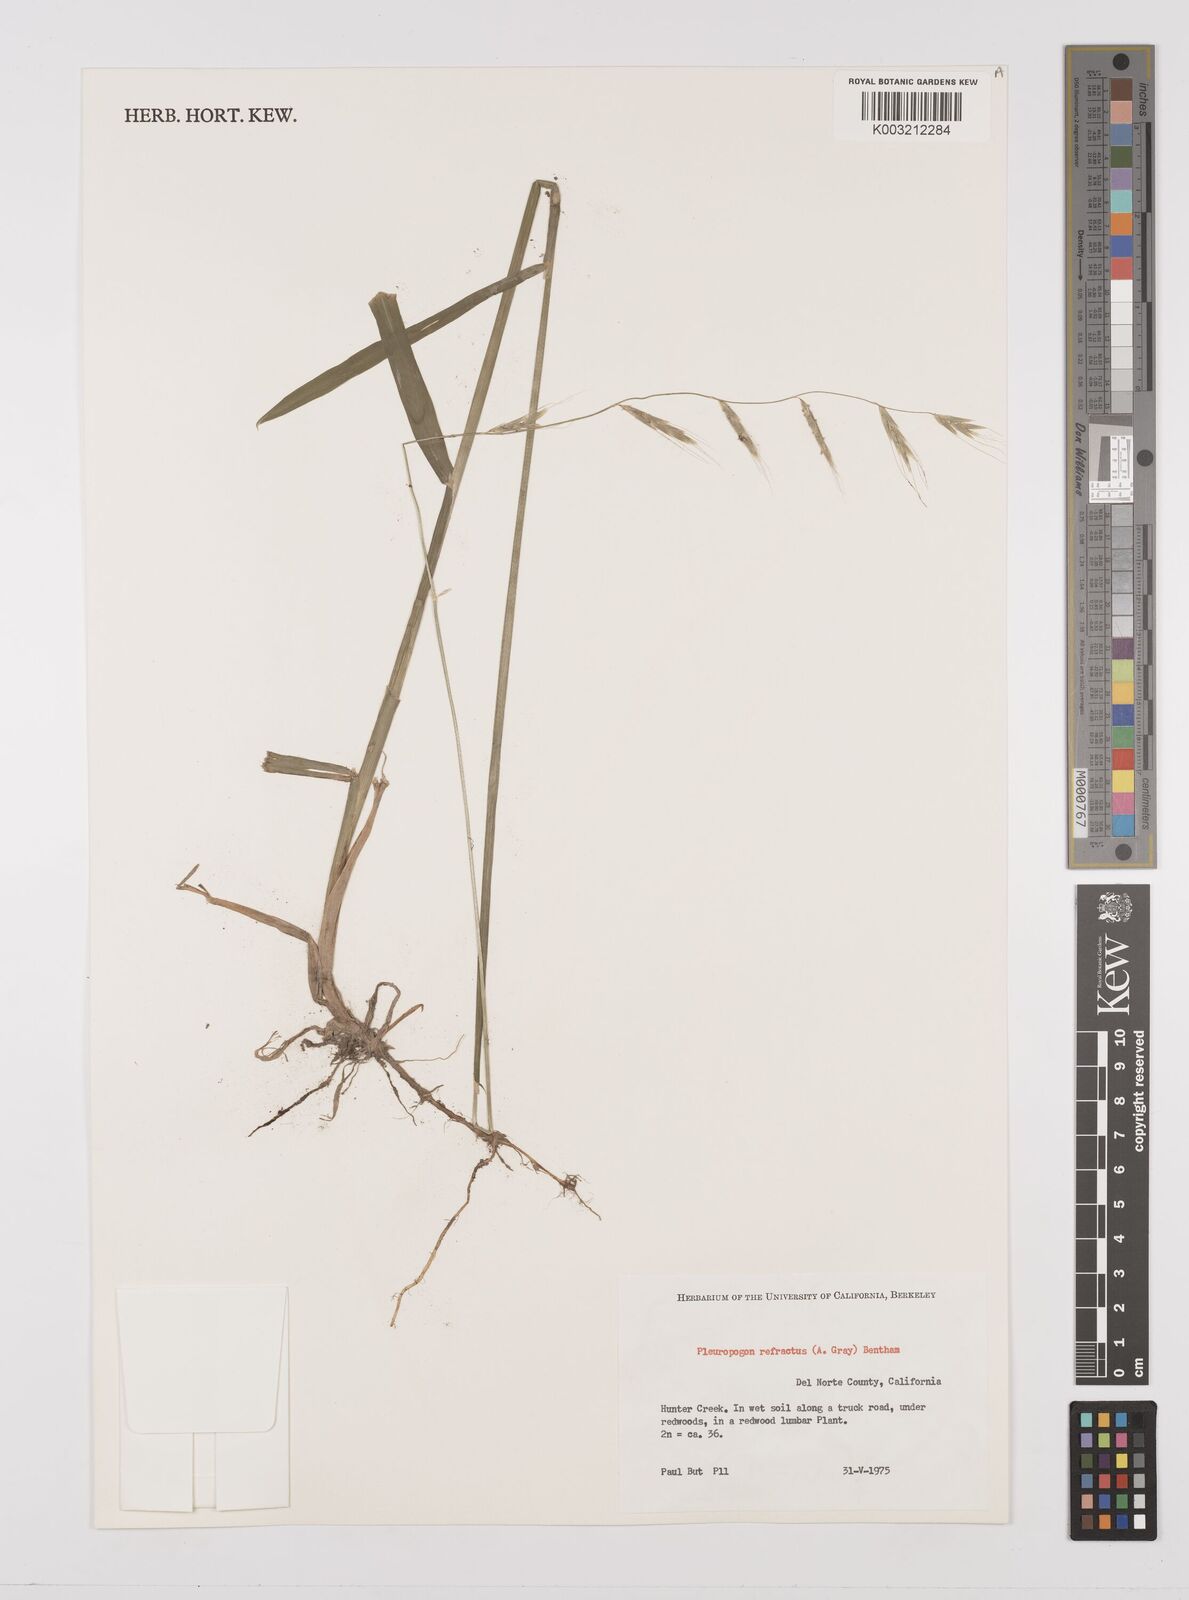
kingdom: Plantae
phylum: Tracheophyta
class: Liliopsida
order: Poales
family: Poaceae
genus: Pleuropogon
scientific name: Pleuropogon refractus
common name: Nodding false semaphoregrass
